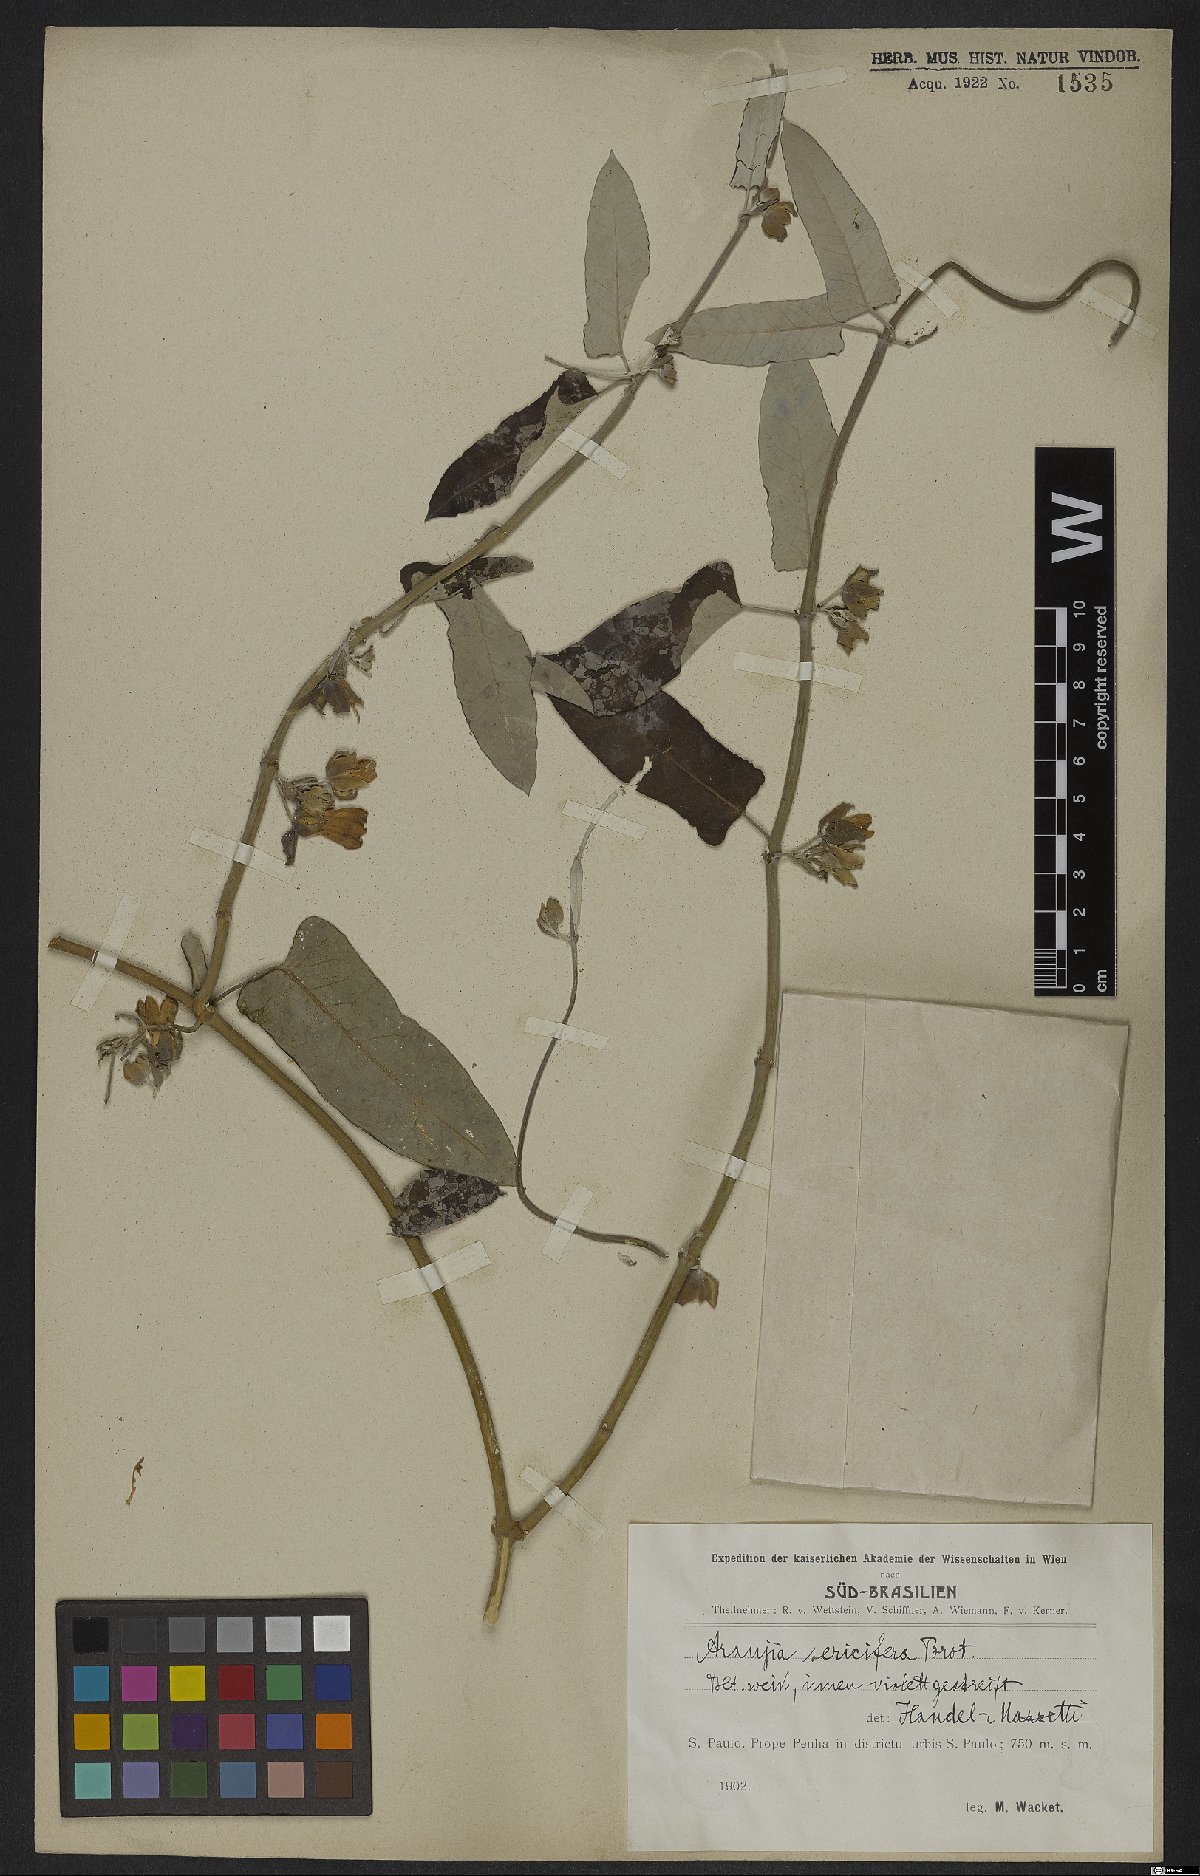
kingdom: Plantae
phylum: Tracheophyta
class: Magnoliopsida
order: Gentianales
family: Apocynaceae
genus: Araujia
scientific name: Araujia sericifera
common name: White bladderflower
